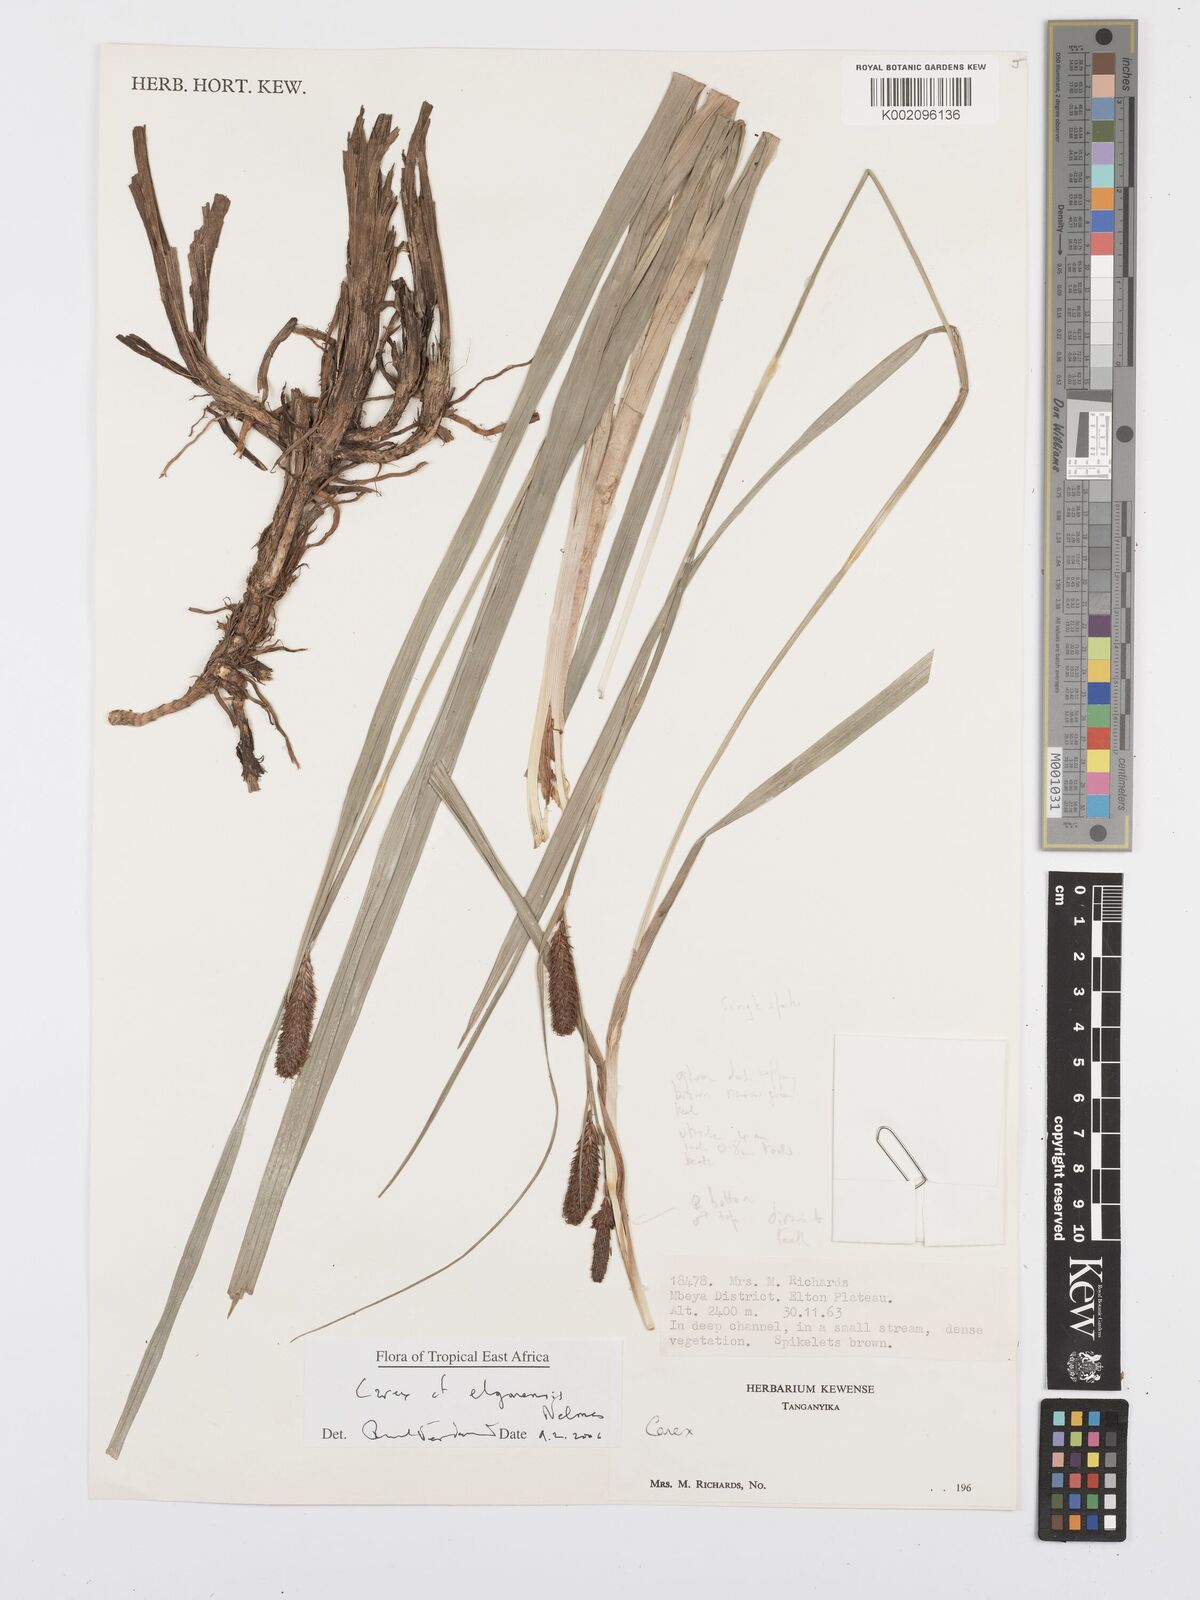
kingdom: Plantae
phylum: Tracheophyta
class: Liliopsida
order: Poales
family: Cyperaceae
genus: Carex
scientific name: Carex elgonensis
